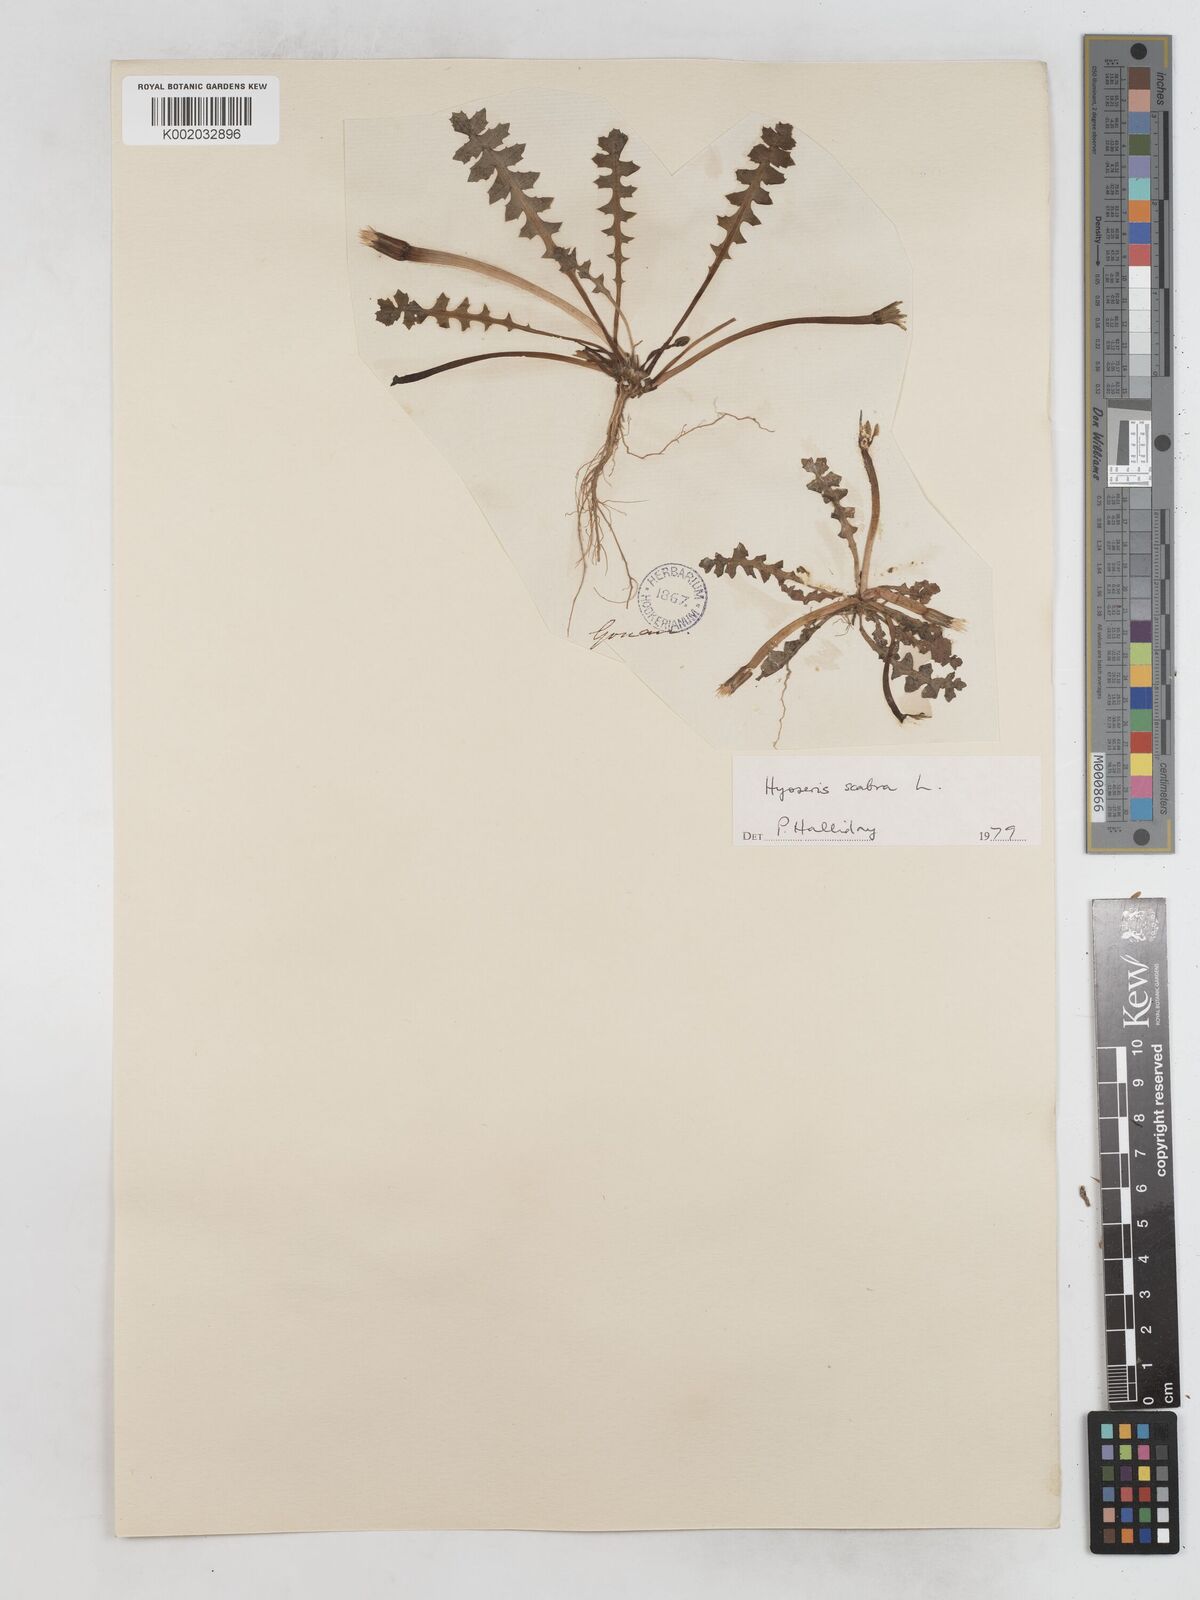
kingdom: Plantae
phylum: Tracheophyta
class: Magnoliopsida
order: Asterales
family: Asteraceae
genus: Hyoseris
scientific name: Hyoseris scabra
